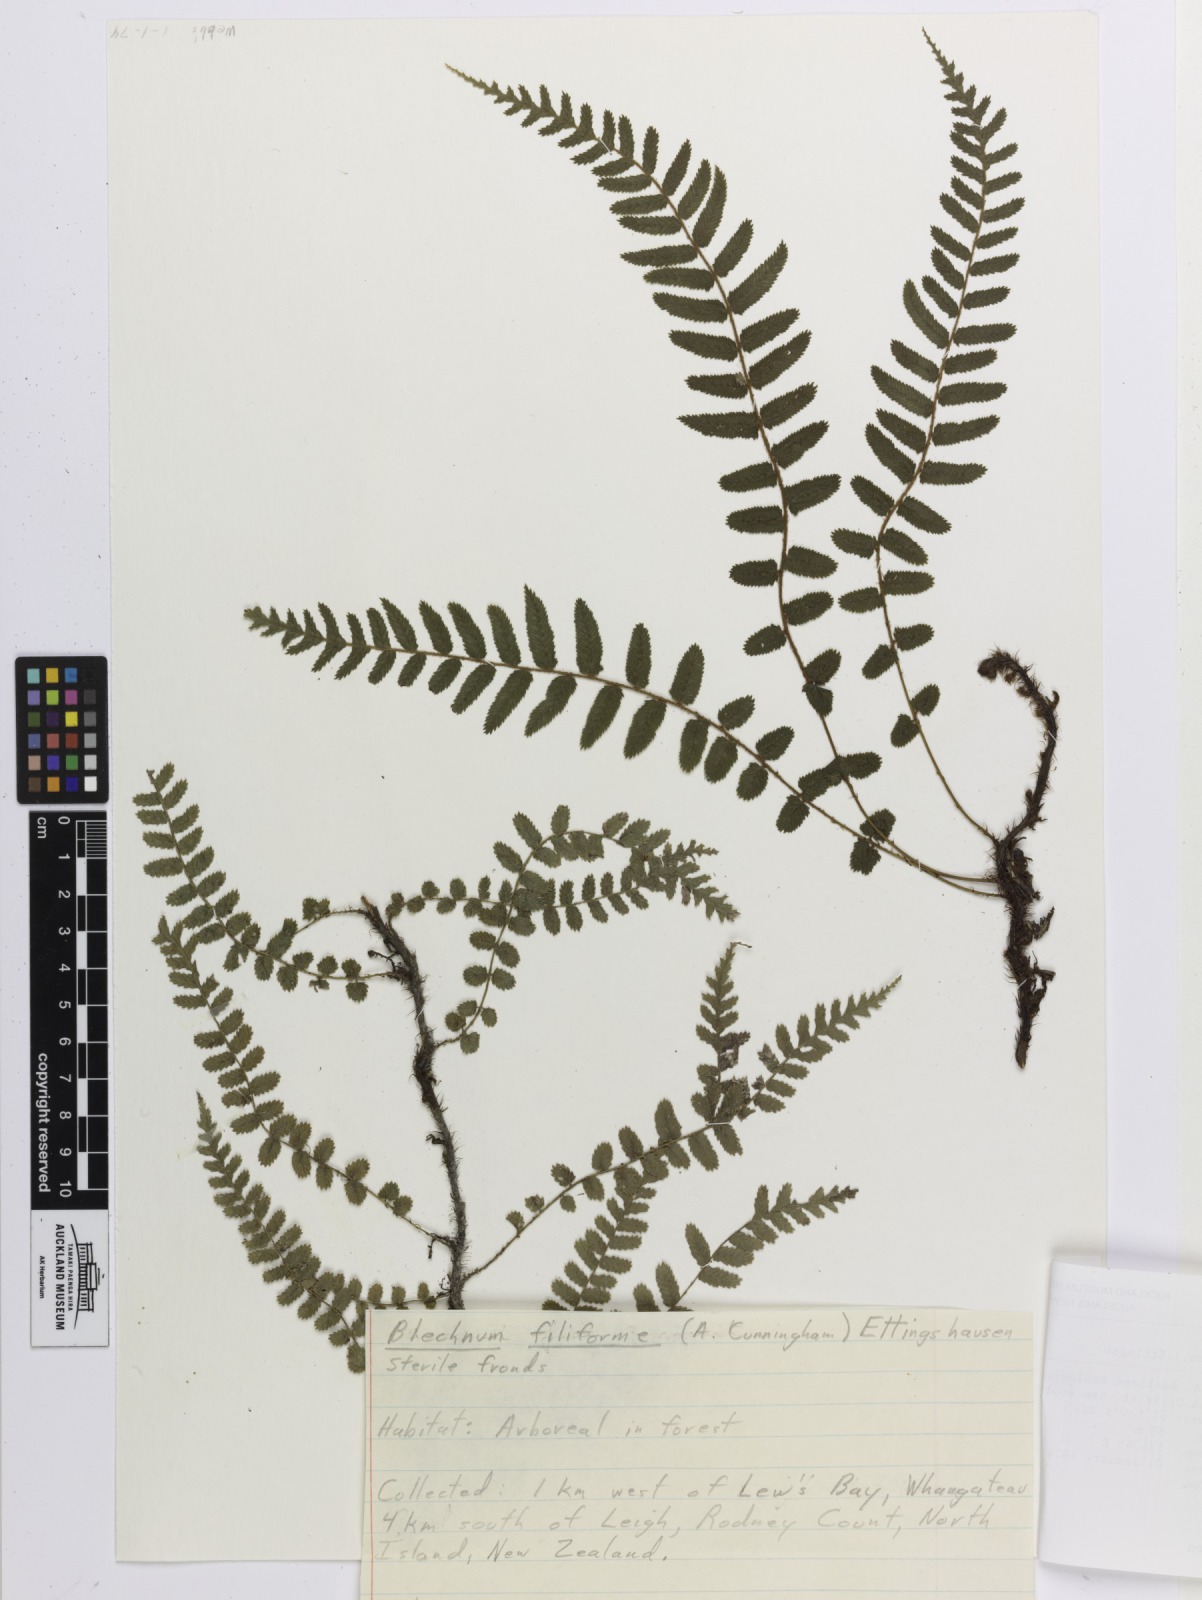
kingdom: Plantae
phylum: Tracheophyta
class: Polypodiopsida
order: Polypodiales
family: Blechnaceae
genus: Icarus
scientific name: Icarus filiformis
